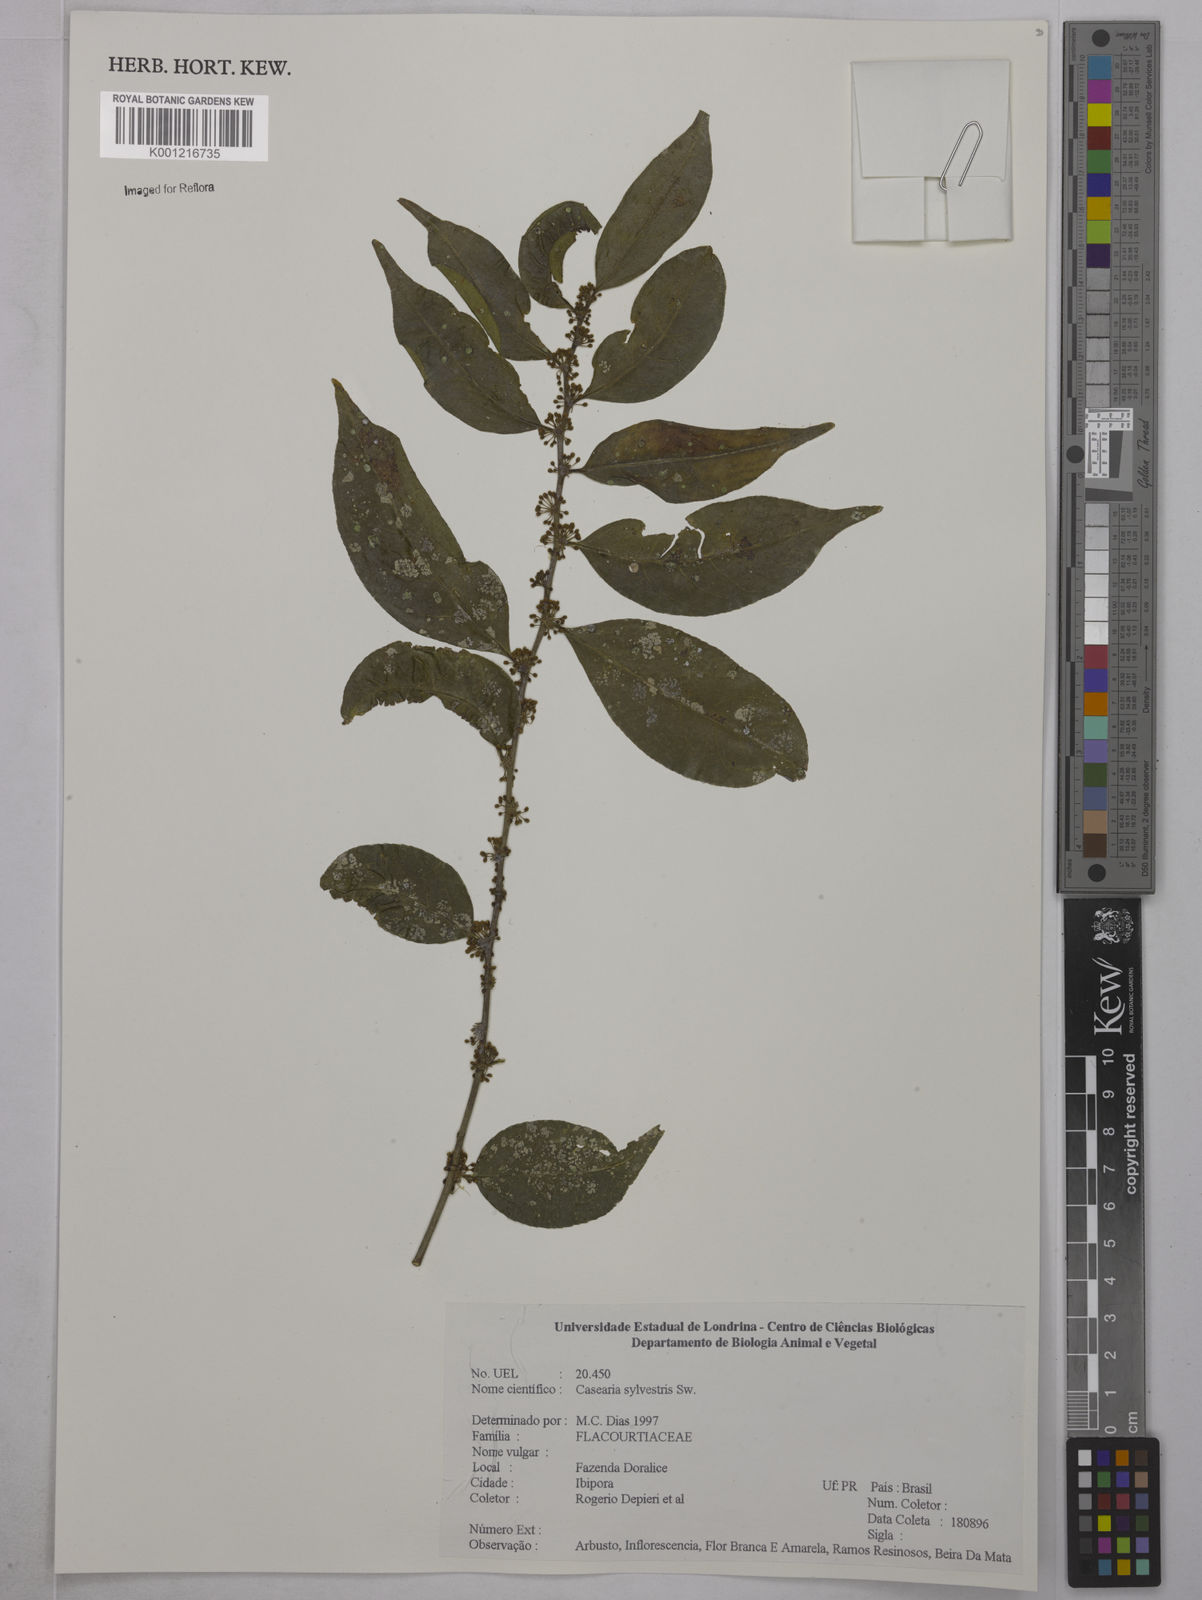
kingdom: Plantae
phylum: Tracheophyta
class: Magnoliopsida
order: Malpighiales
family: Salicaceae
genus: Casearia
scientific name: Casearia sylvestris
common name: Wild sage
